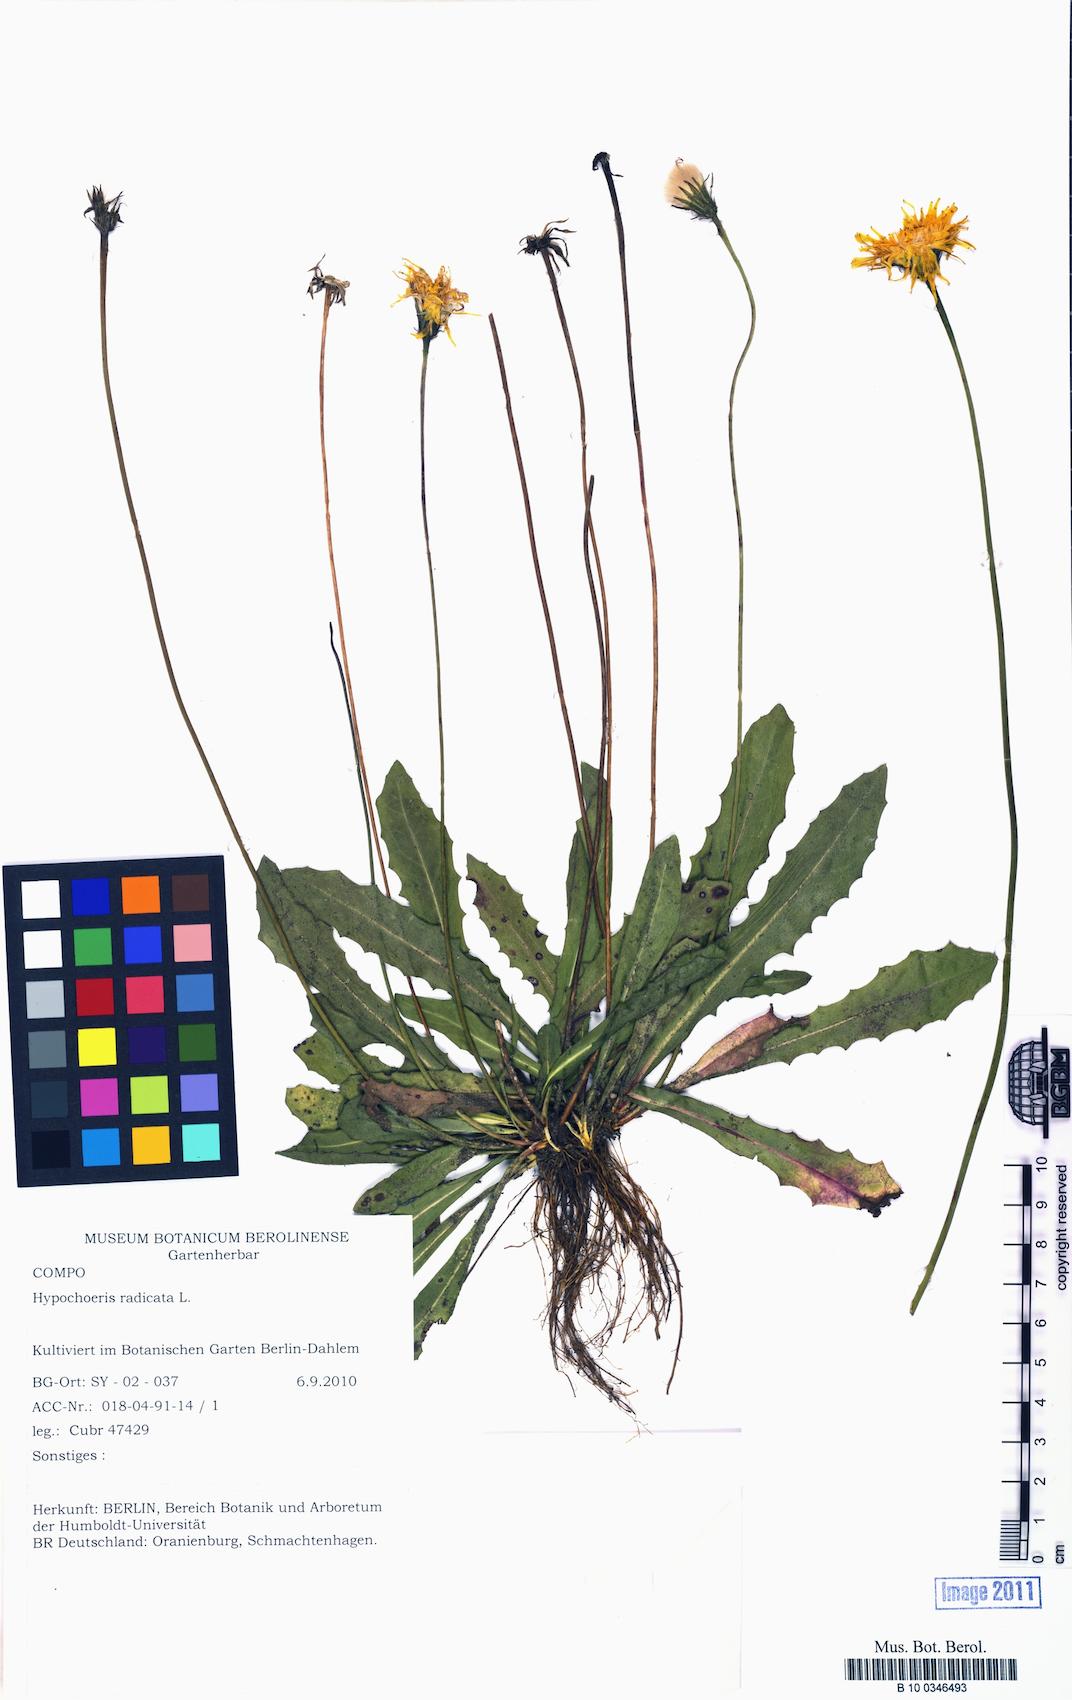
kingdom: Plantae
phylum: Tracheophyta
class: Magnoliopsida
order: Asterales
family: Asteraceae
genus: Hypochaeris
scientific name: Hypochaeris radicata
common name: Flatweed
